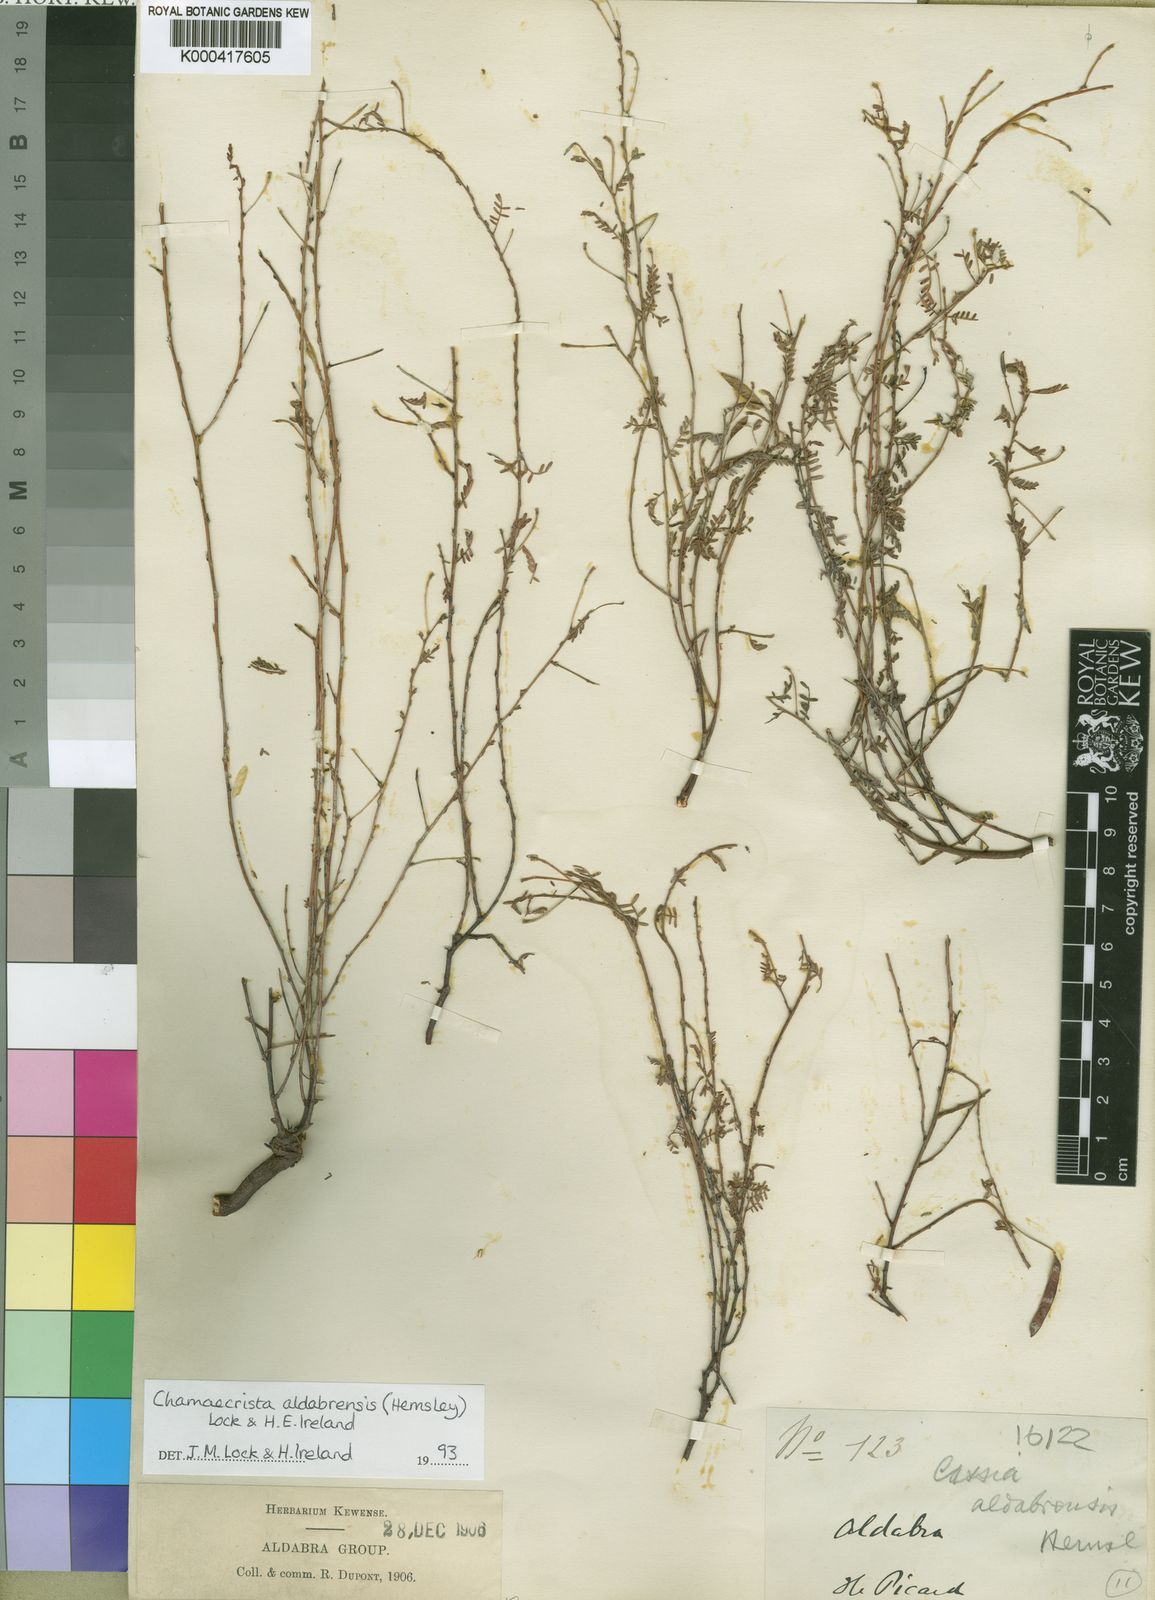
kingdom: Plantae
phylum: Tracheophyta
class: Magnoliopsida
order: Fabales
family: Fabaceae
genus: Chamaecrista
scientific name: Chamaecrista aldabrensis
